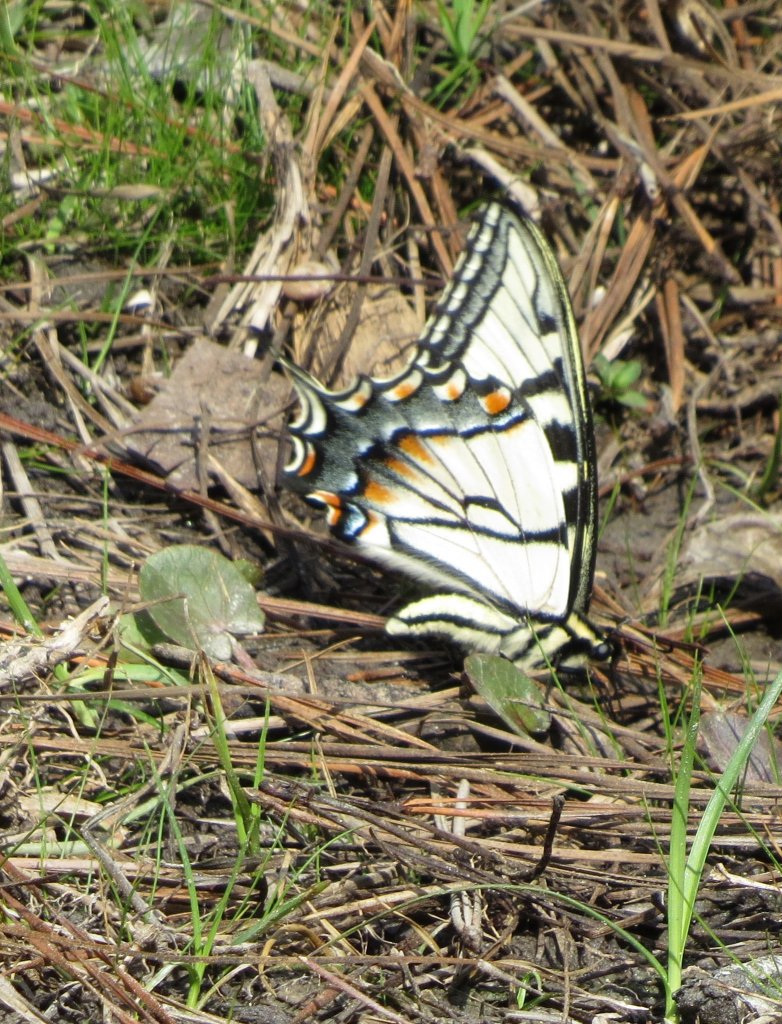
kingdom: Animalia
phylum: Arthropoda
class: Insecta
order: Lepidoptera
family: Papilionidae
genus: Pterourus
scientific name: Pterourus glaucus
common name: Eastern Tiger Swallowtail
